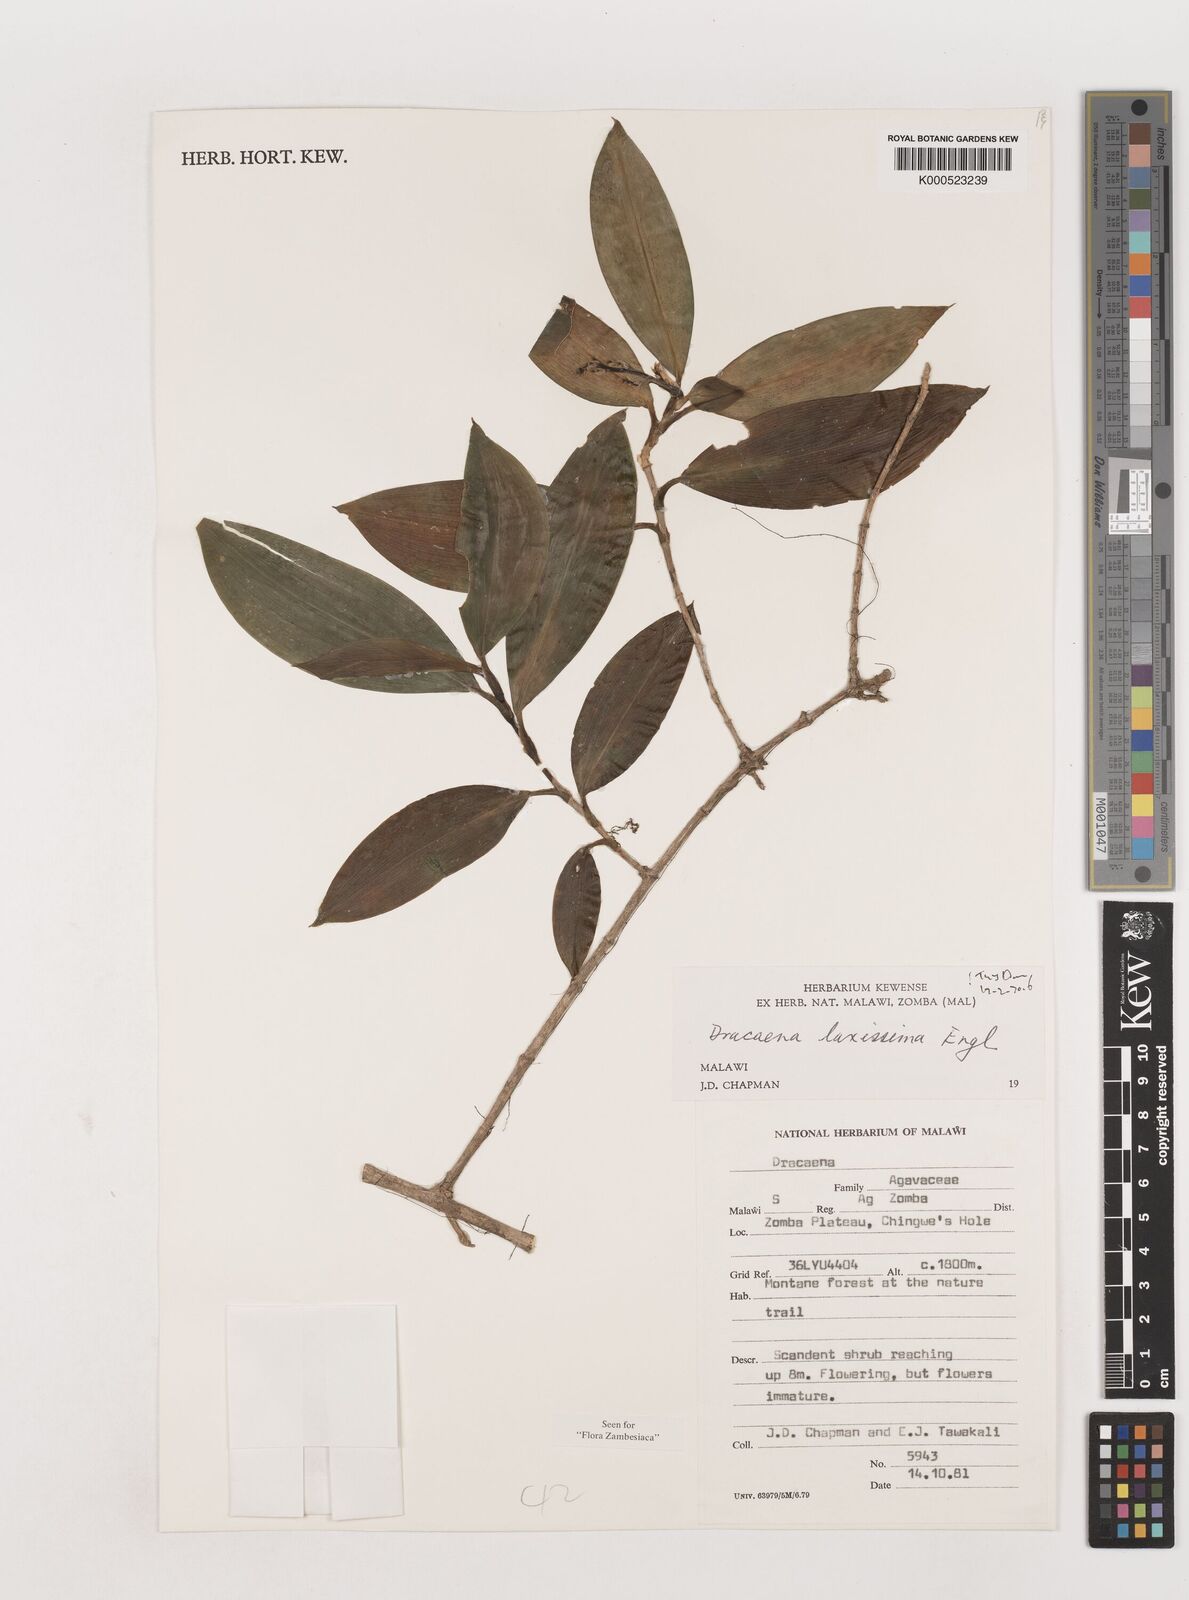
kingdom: Plantae
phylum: Tracheophyta
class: Liliopsida
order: Asparagales
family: Asparagaceae
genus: Dracaena
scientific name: Dracaena laxissima
